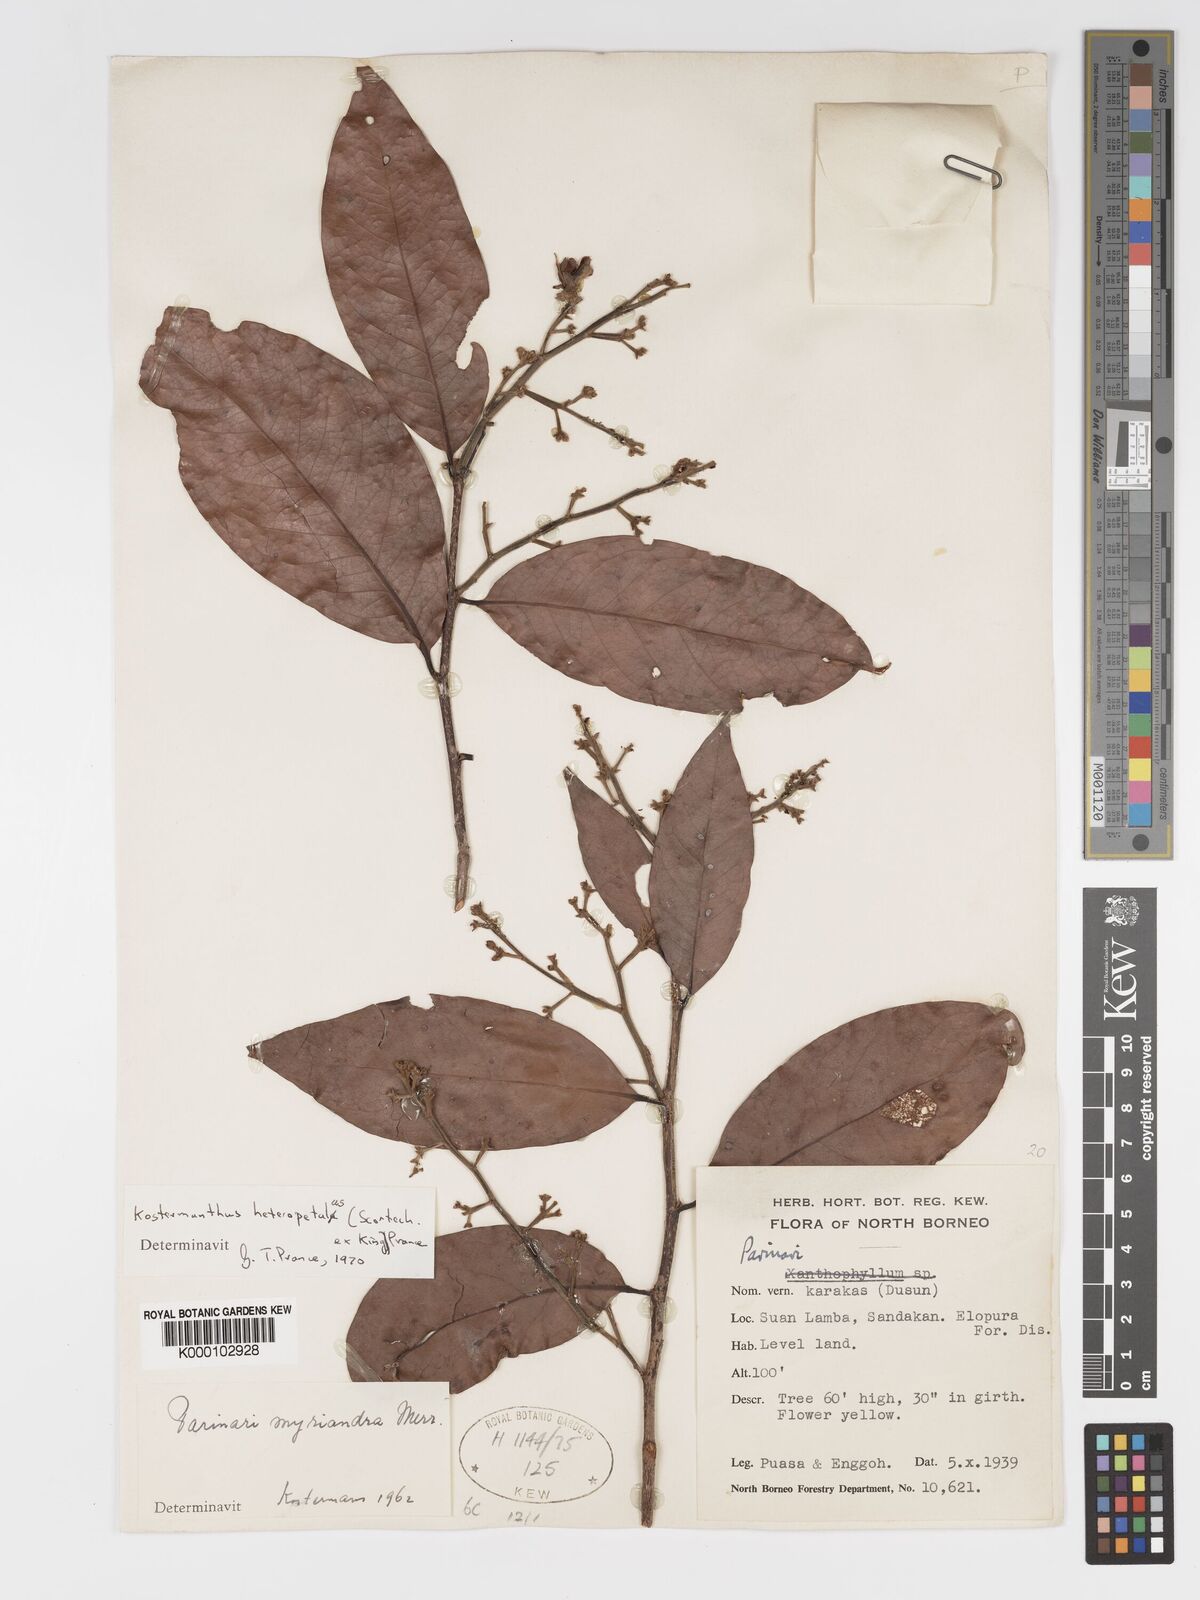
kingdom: Plantae
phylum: Tracheophyta
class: Magnoliopsida
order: Malpighiales
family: Chrysobalanaceae
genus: Kostermanthus
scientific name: Kostermanthus heteropetalus
